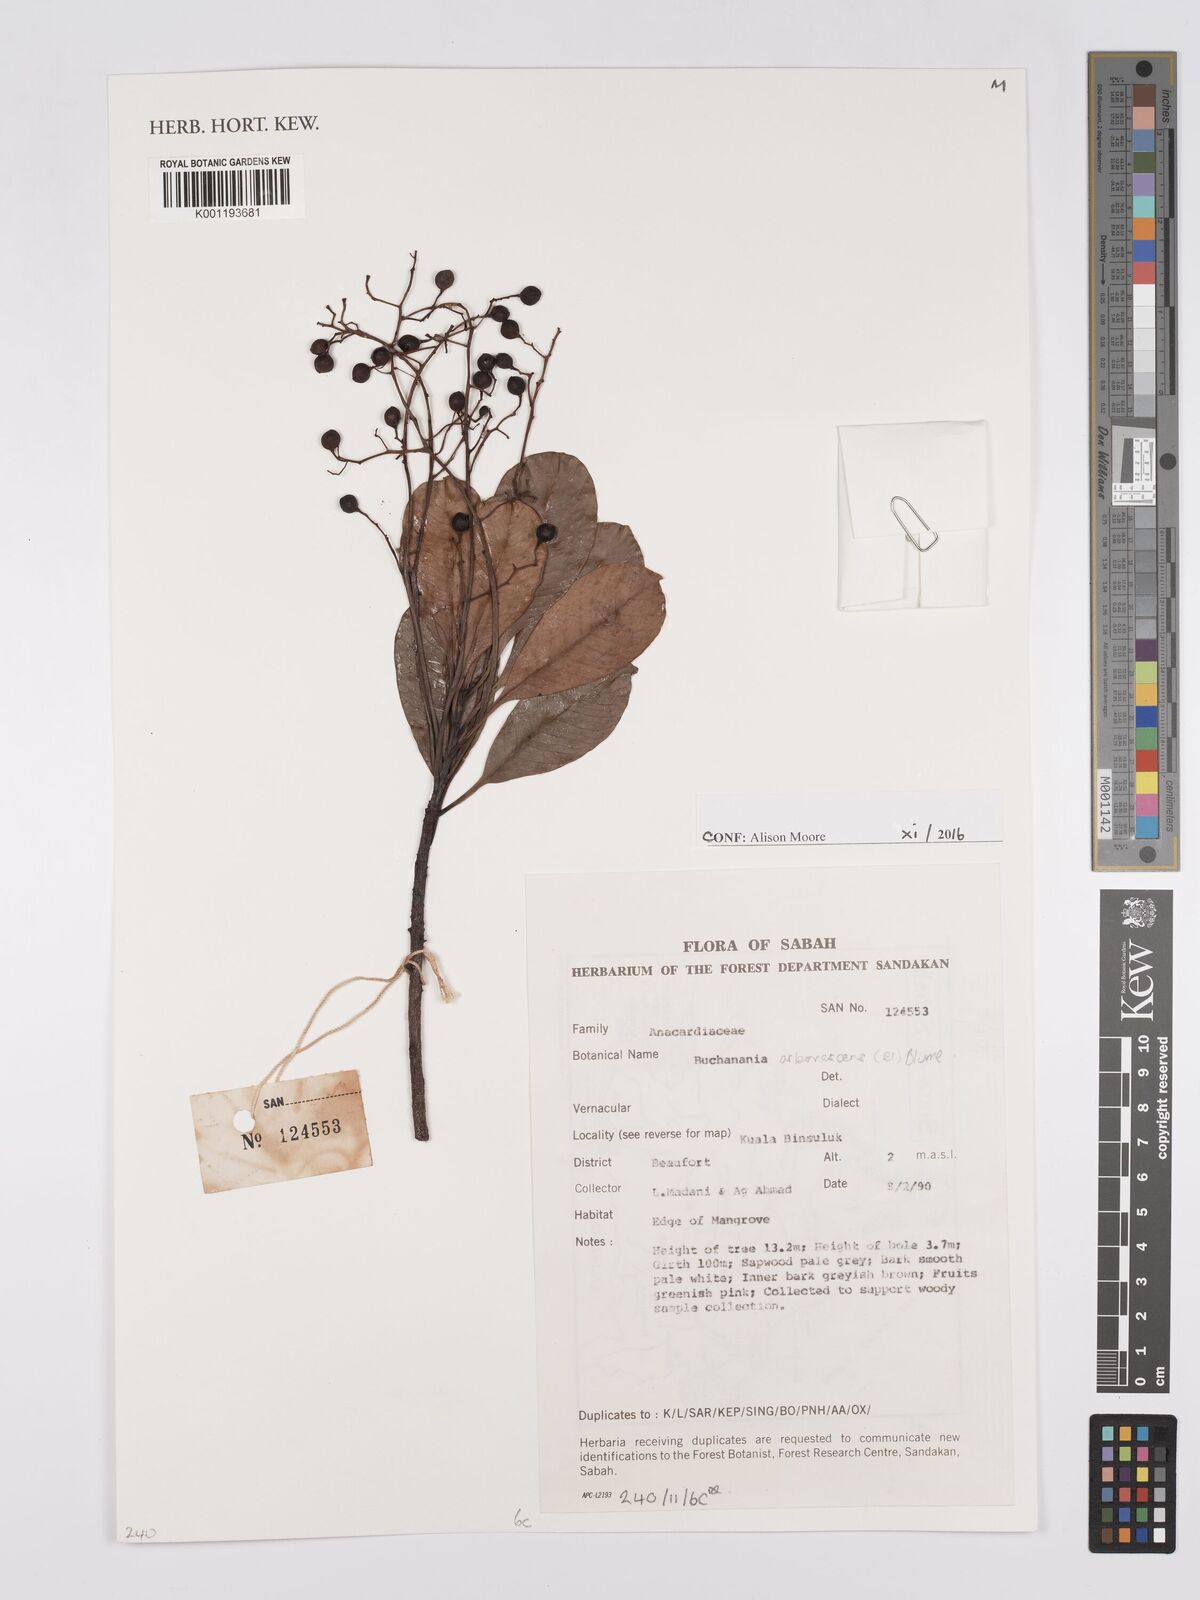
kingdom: Plantae
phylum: Tracheophyta
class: Magnoliopsida
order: Sapindales
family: Anacardiaceae
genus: Buchanania
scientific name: Buchanania arborescens
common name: Sparrow’s mango
